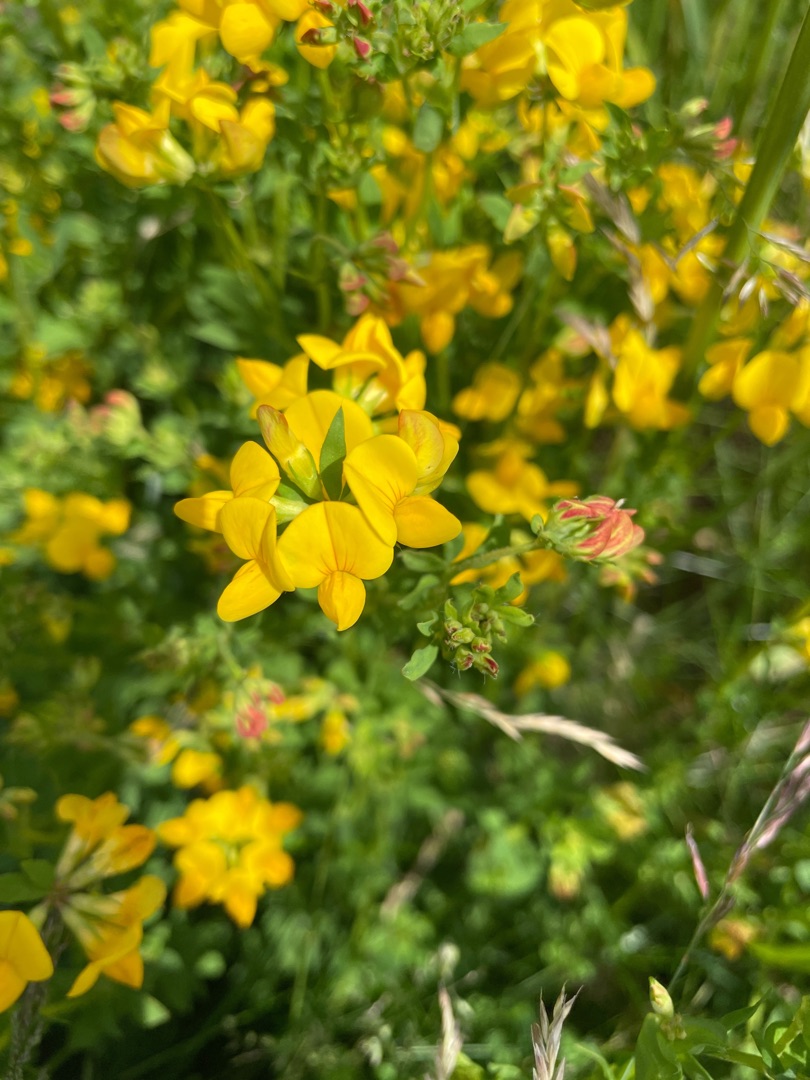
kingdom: Plantae
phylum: Tracheophyta
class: Magnoliopsida
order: Fabales
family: Fabaceae
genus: Lotus
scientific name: Lotus corniculatus
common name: Almindelig kællingetand
